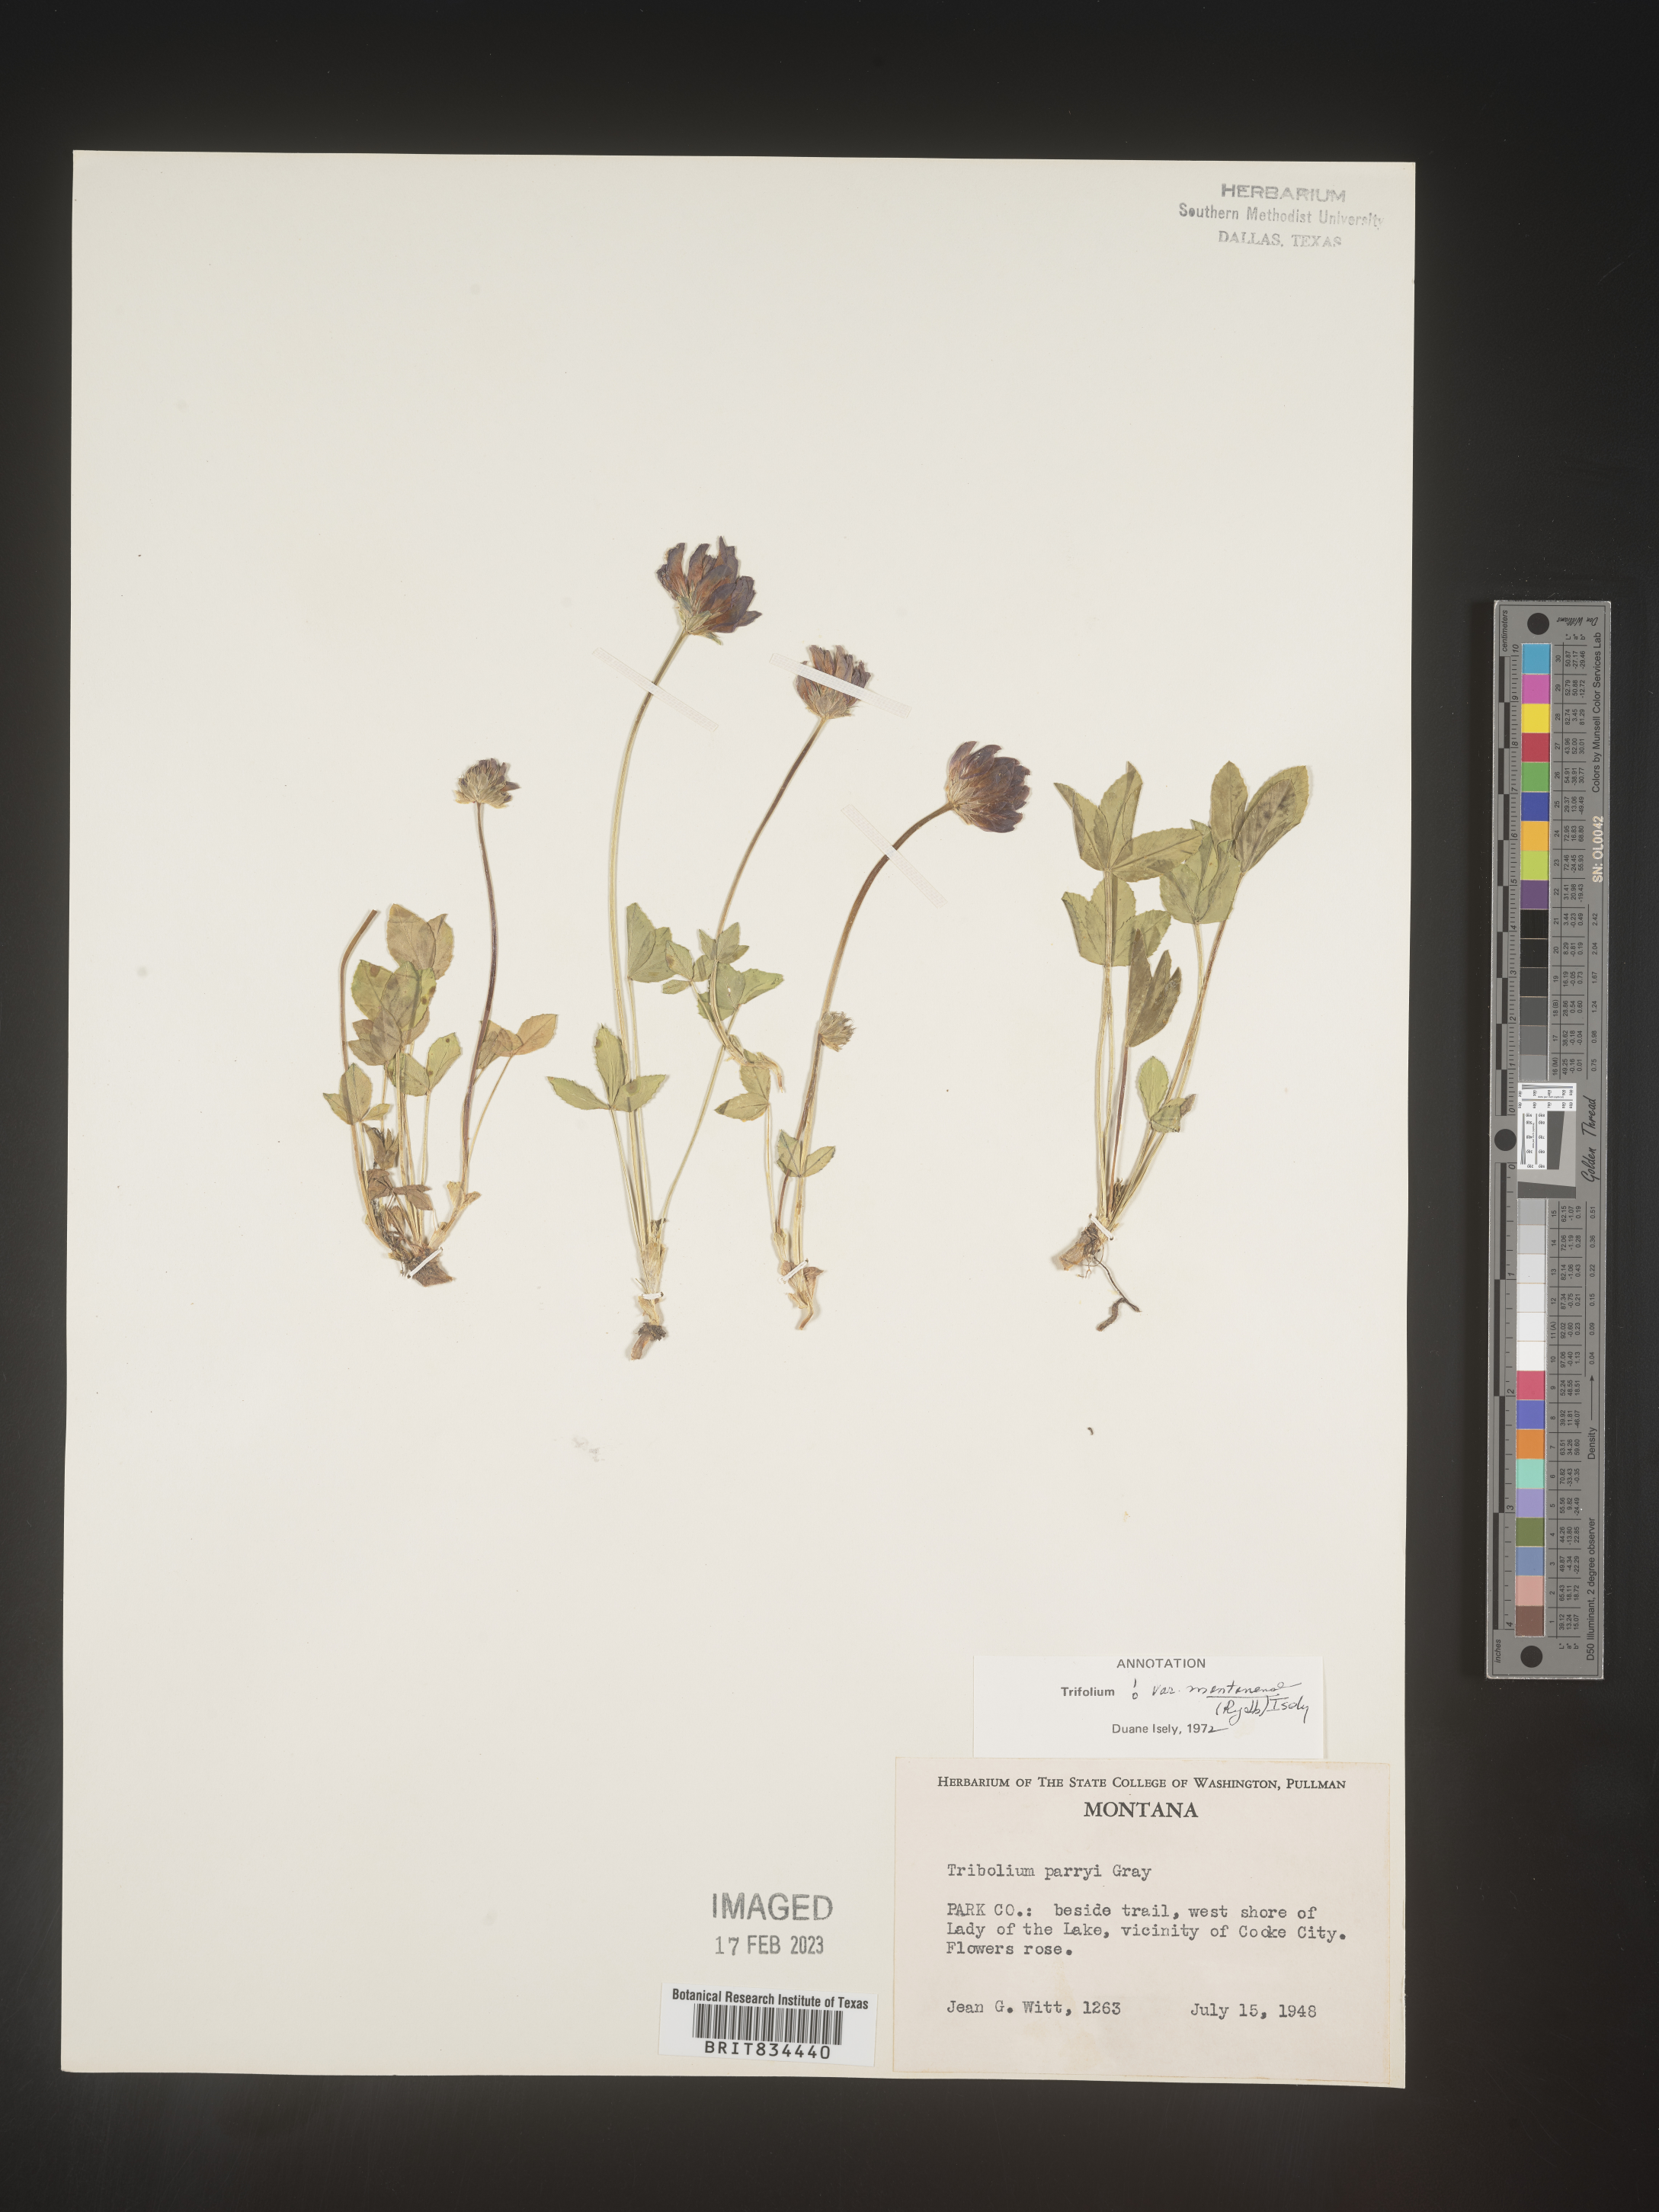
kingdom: Plantae
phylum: Tracheophyta
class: Magnoliopsida
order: Fabales
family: Fabaceae
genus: Trifolium
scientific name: Trifolium
